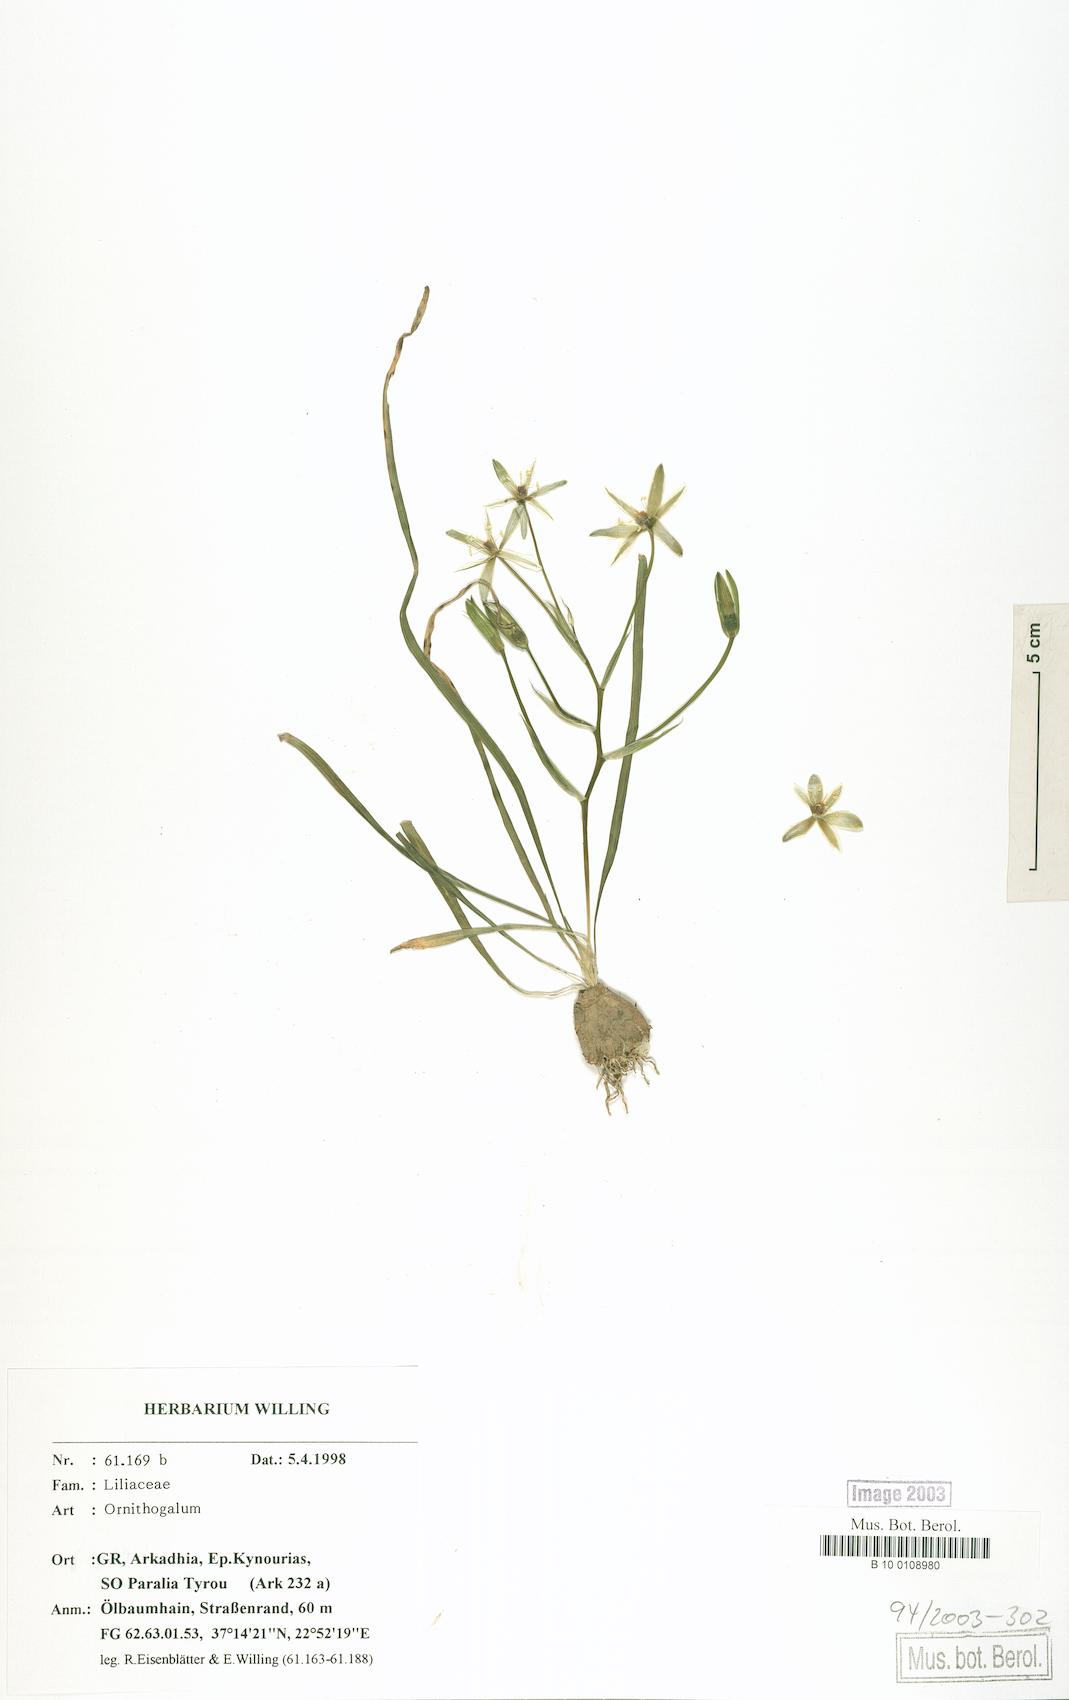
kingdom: Plantae
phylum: Tracheophyta
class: Liliopsida
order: Liliales
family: Liliaceae
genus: Ornithogalum
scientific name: Ornithogalum
